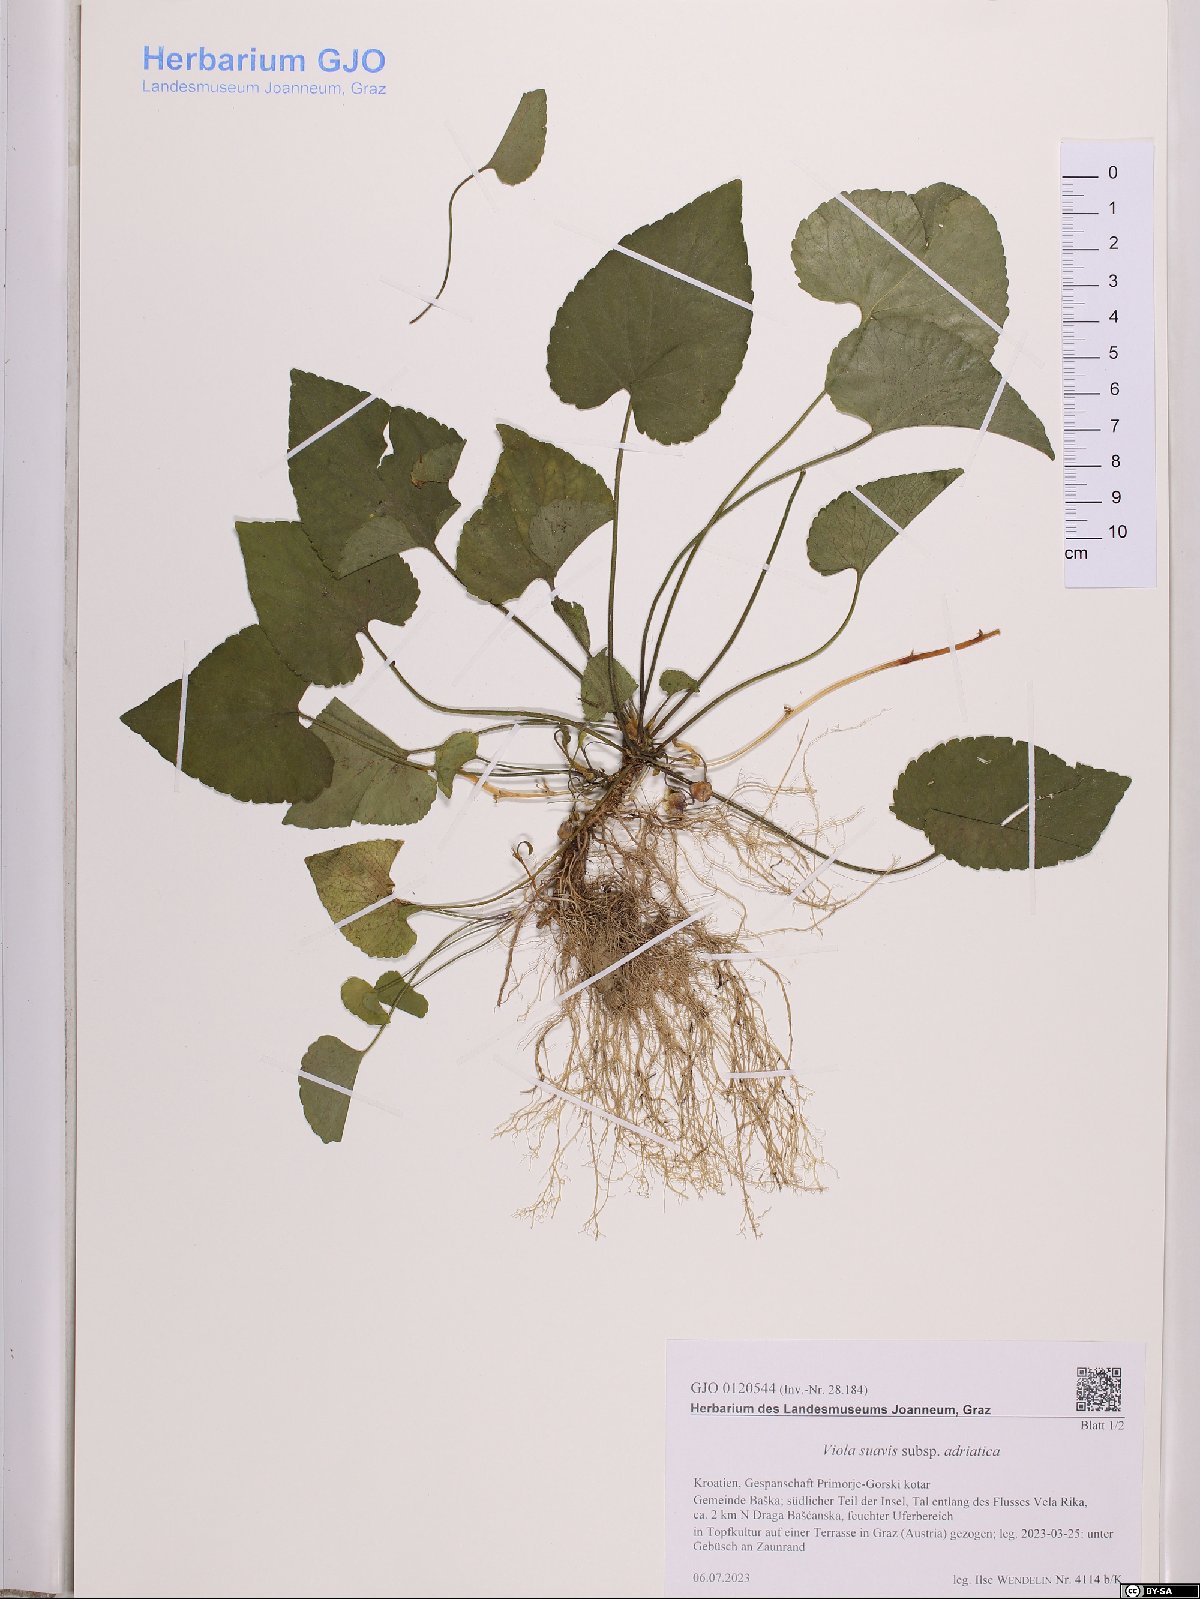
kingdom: Plantae
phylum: Tracheophyta
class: Magnoliopsida
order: Malpighiales
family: Violaceae
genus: Viola
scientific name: Viola suavis
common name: Russian violet
